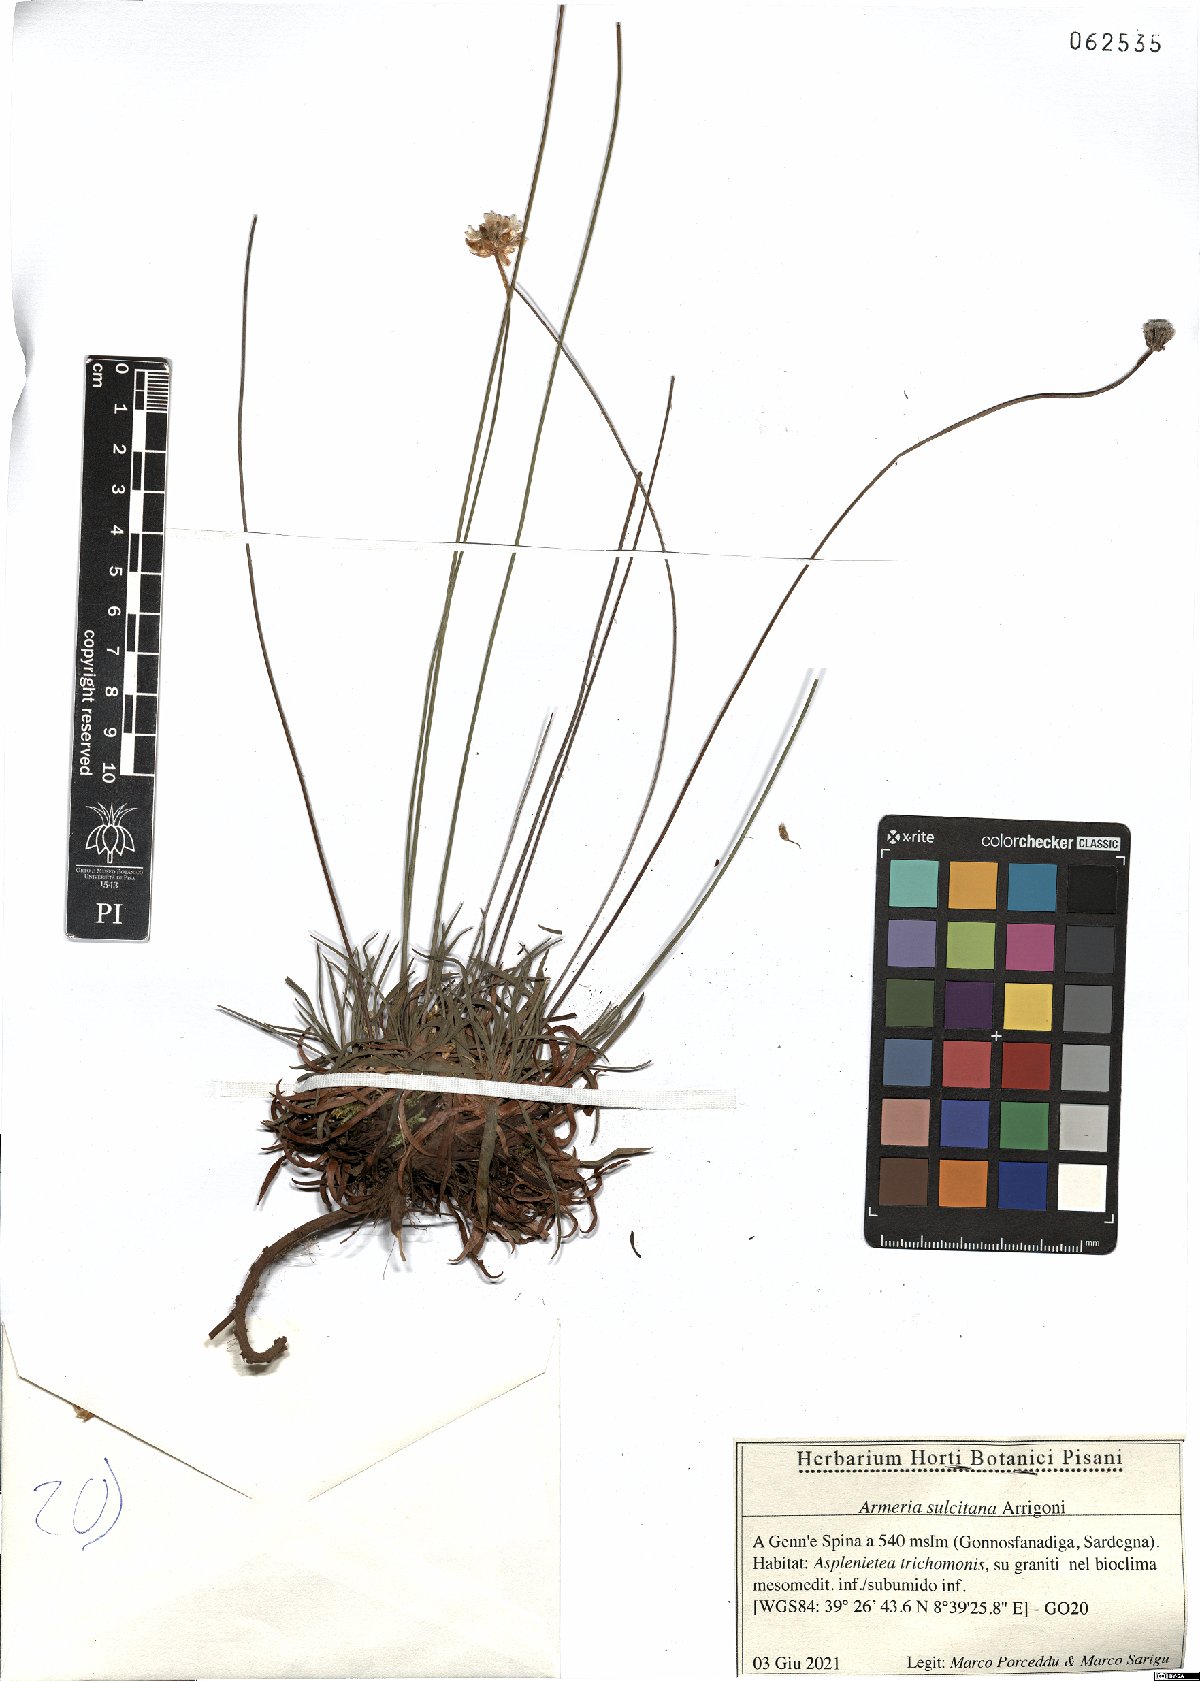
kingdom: Plantae
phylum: Tracheophyta
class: Magnoliopsida
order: Caryophyllales
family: Plumbaginaceae
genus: Armeria
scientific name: Armeria sulcitana
